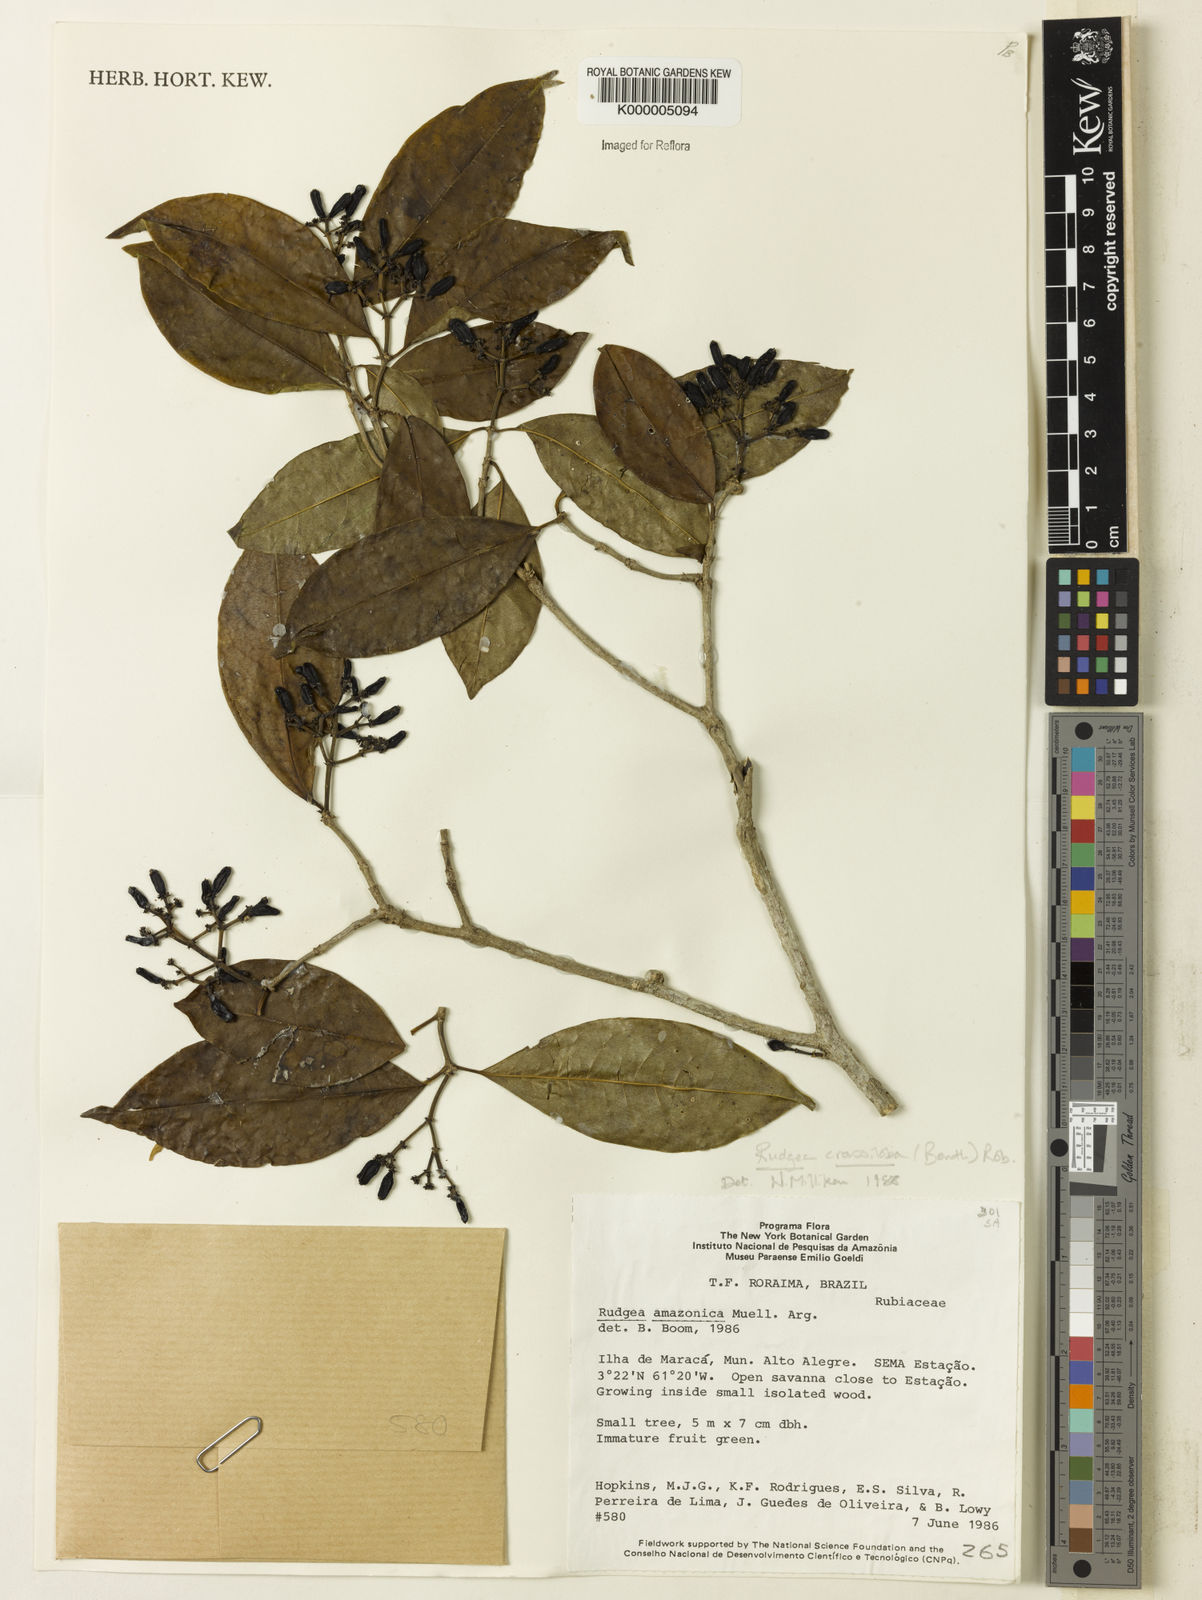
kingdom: Plantae
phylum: Tracheophyta
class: Magnoliopsida
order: Gentianales
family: Rubiaceae
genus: Rudgea
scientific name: Rudgea crassiloba
